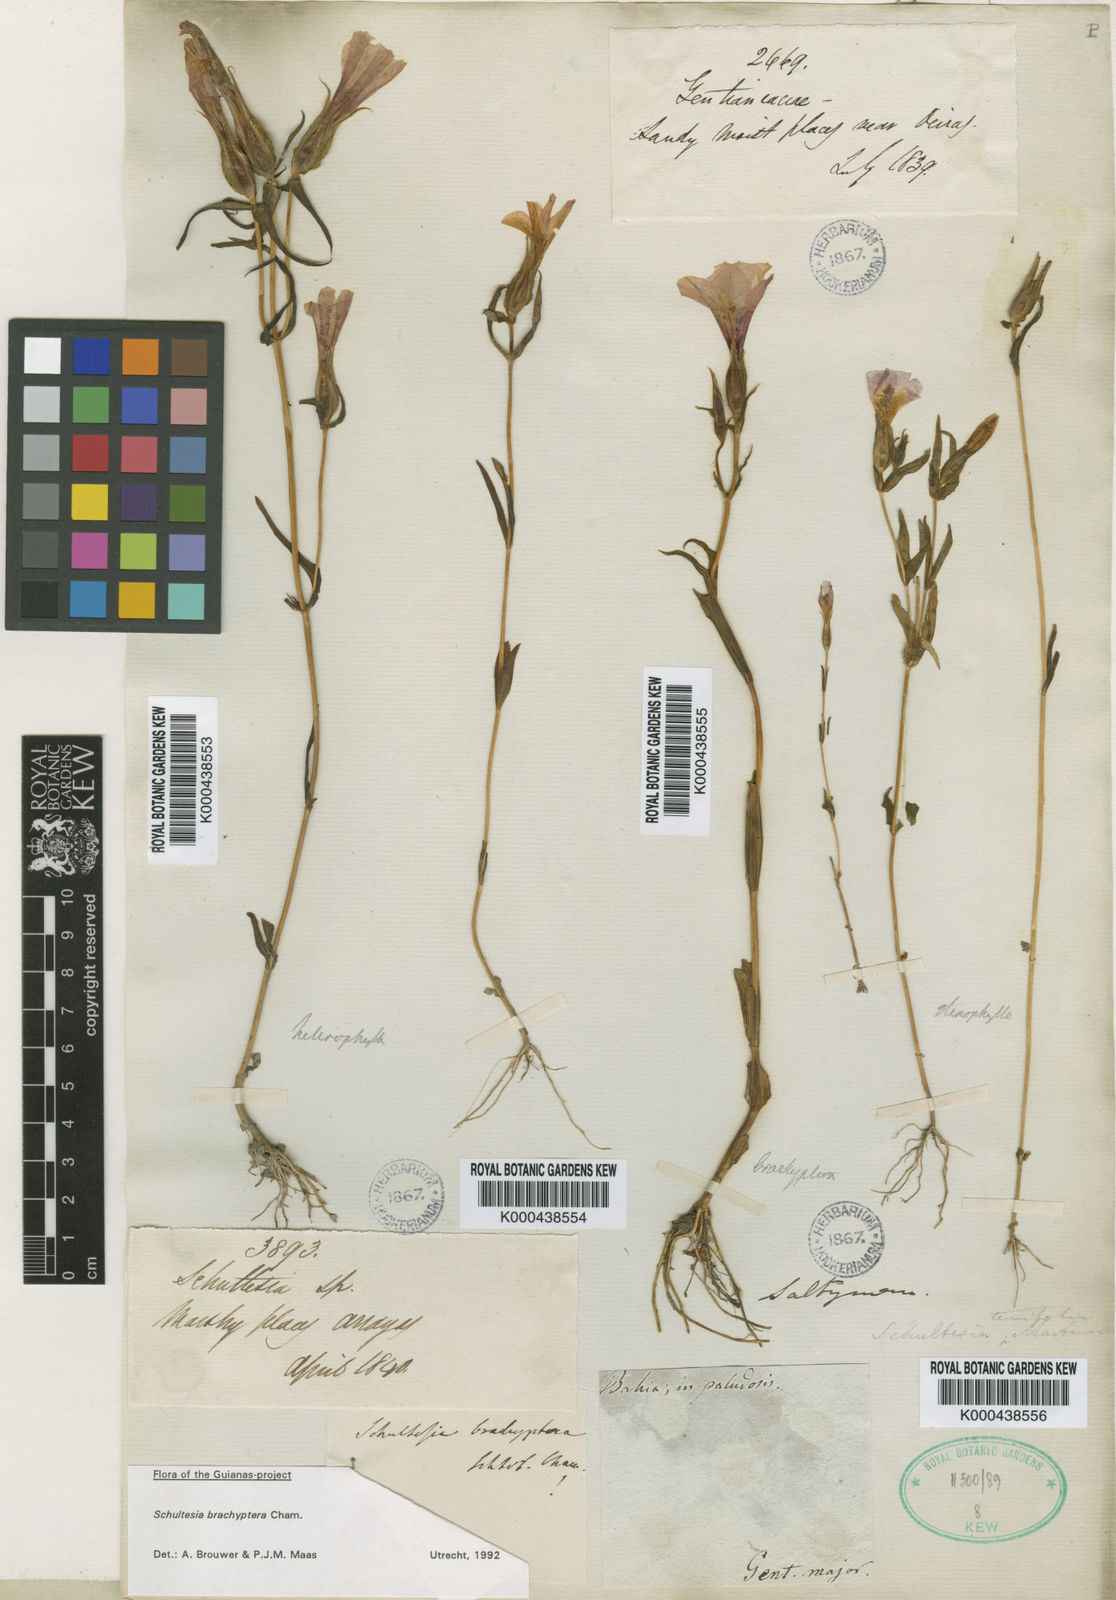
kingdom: Plantae
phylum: Tracheophyta
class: Magnoliopsida
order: Gentianales
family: Gentianaceae
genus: Schultesia
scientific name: Schultesia brachyptera
